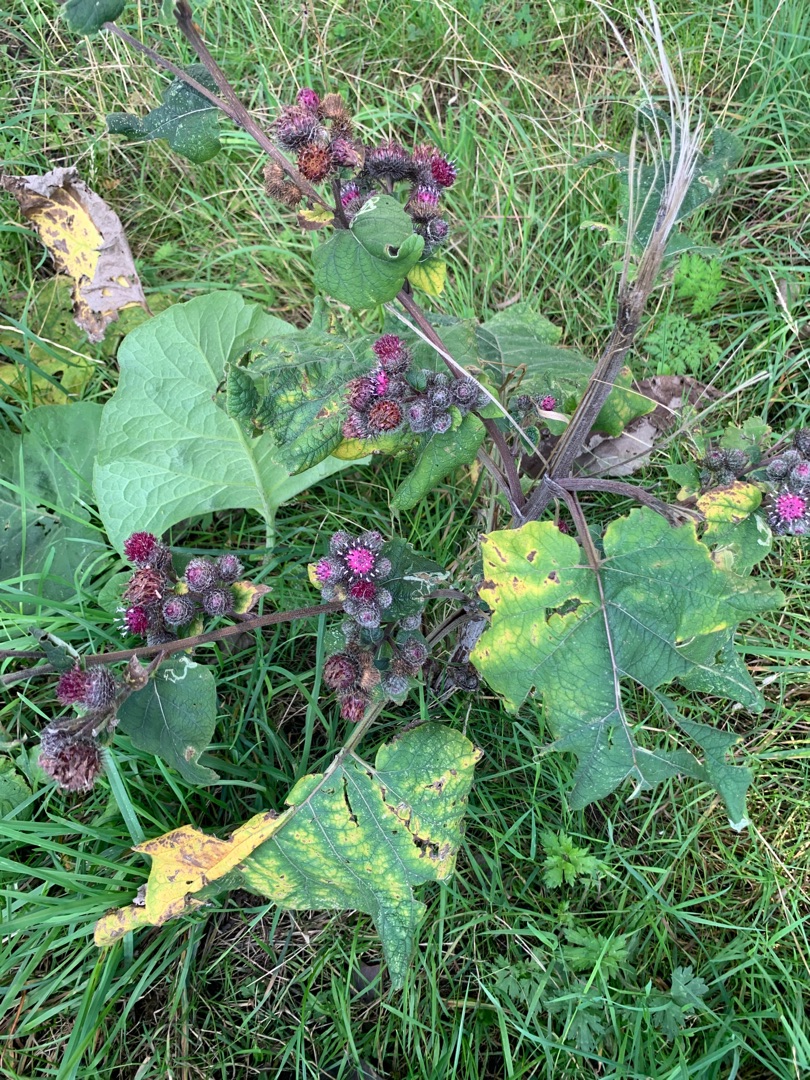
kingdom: Plantae
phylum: Tracheophyta
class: Magnoliopsida
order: Asterales
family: Asteraceae
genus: Arctium
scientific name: Arctium tomentosum
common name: Filtet burre
